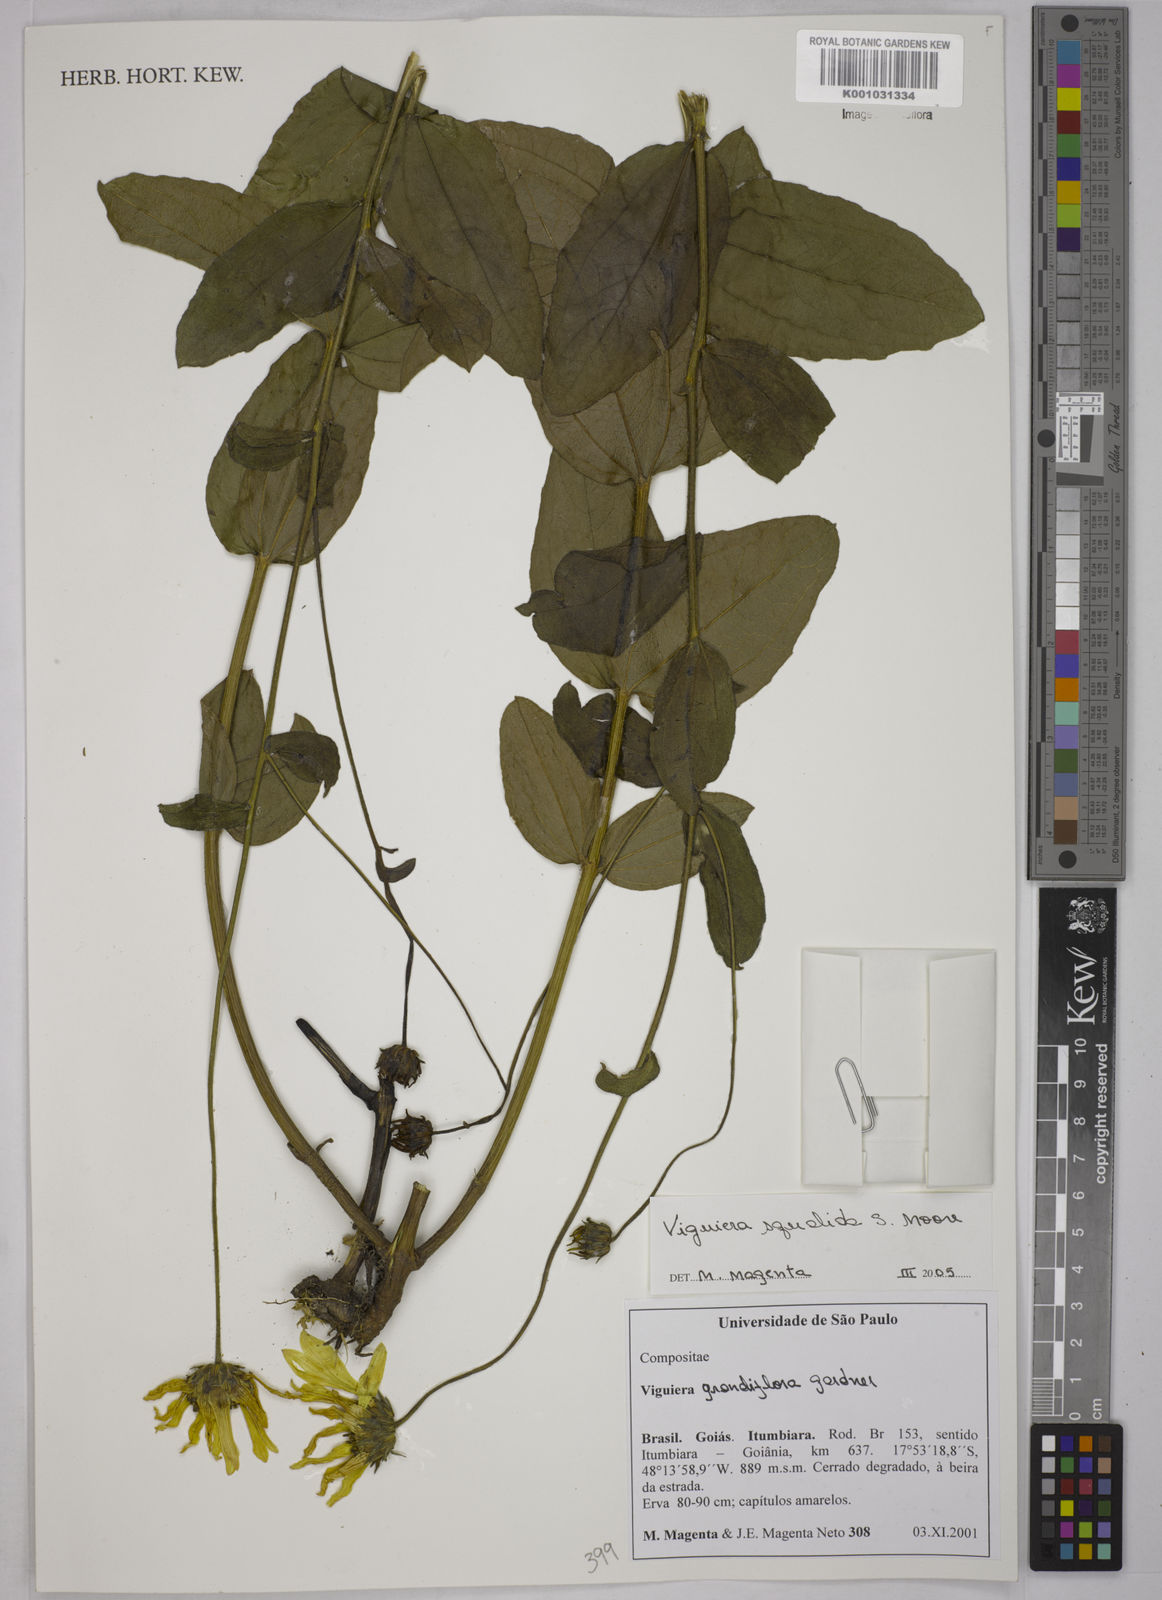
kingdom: Plantae
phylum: Tracheophyta
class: Magnoliopsida
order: Asterales
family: Asteraceae
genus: Aldama
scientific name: Aldama squalida
